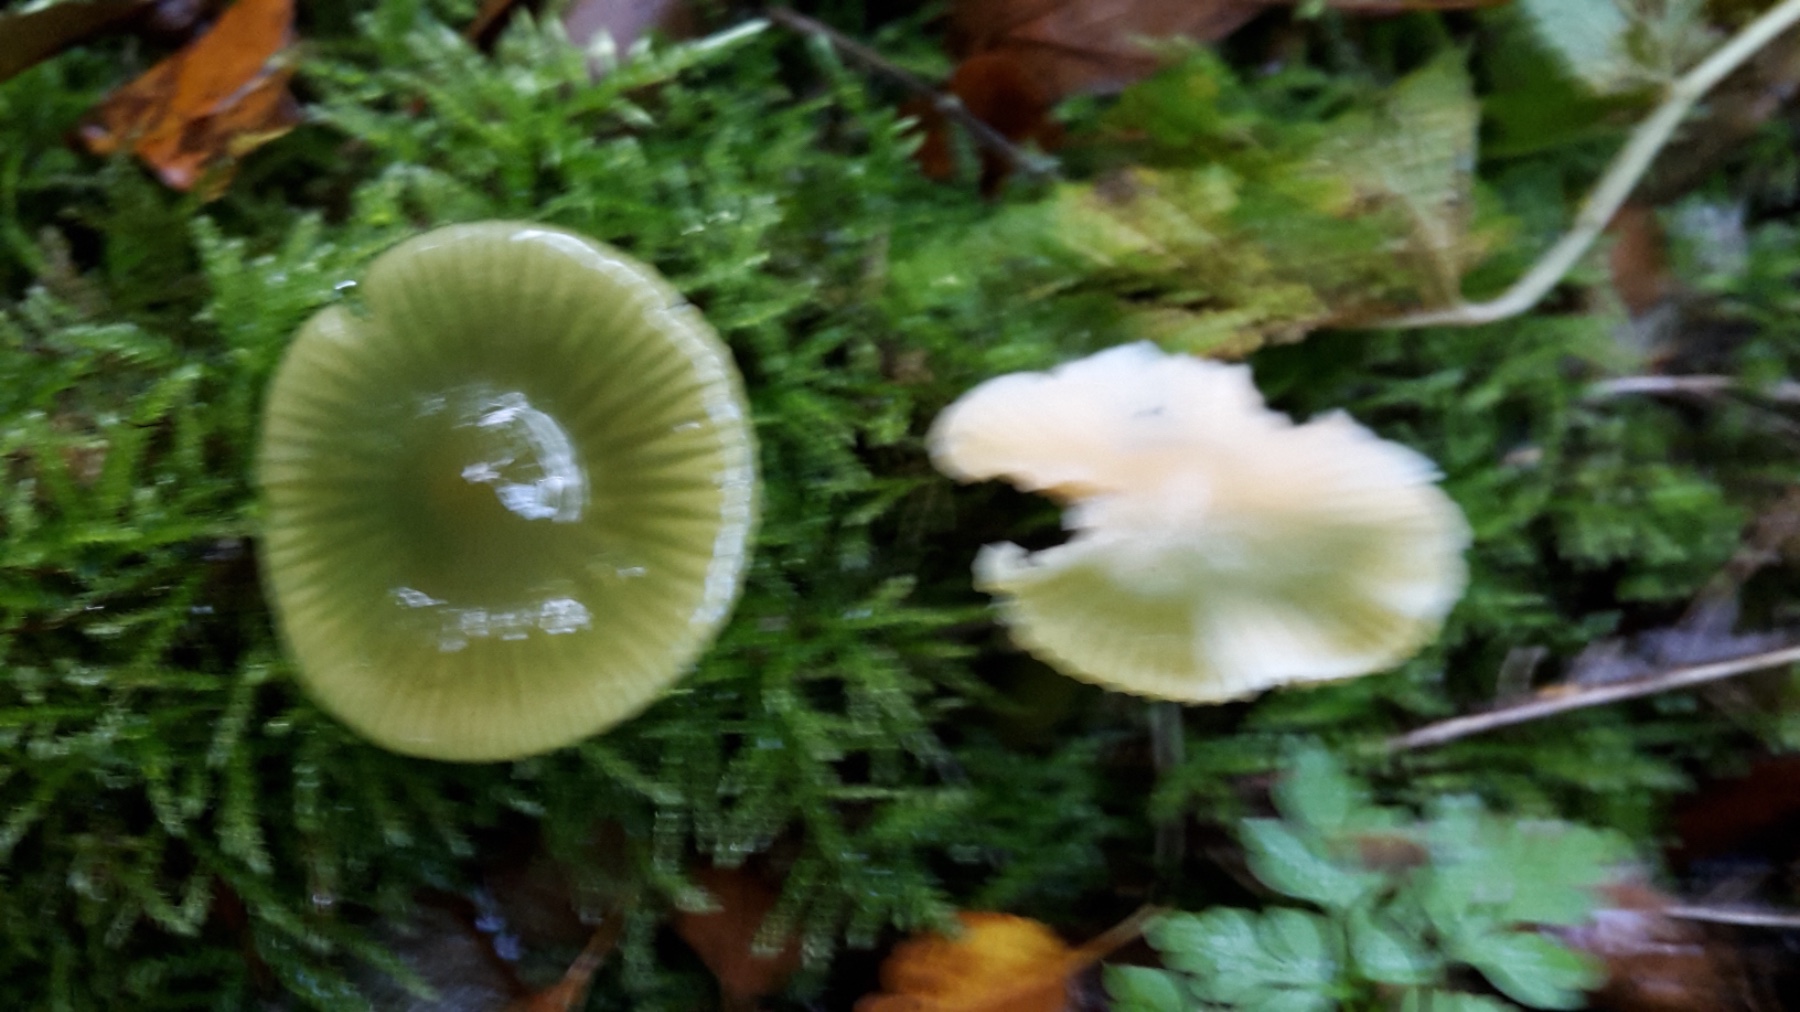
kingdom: Fungi
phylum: Basidiomycota
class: Agaricomycetes
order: Agaricales
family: Hygrophoraceae
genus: Gliophorus
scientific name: Gliophorus psittacinus
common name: papegøje-vokshat
